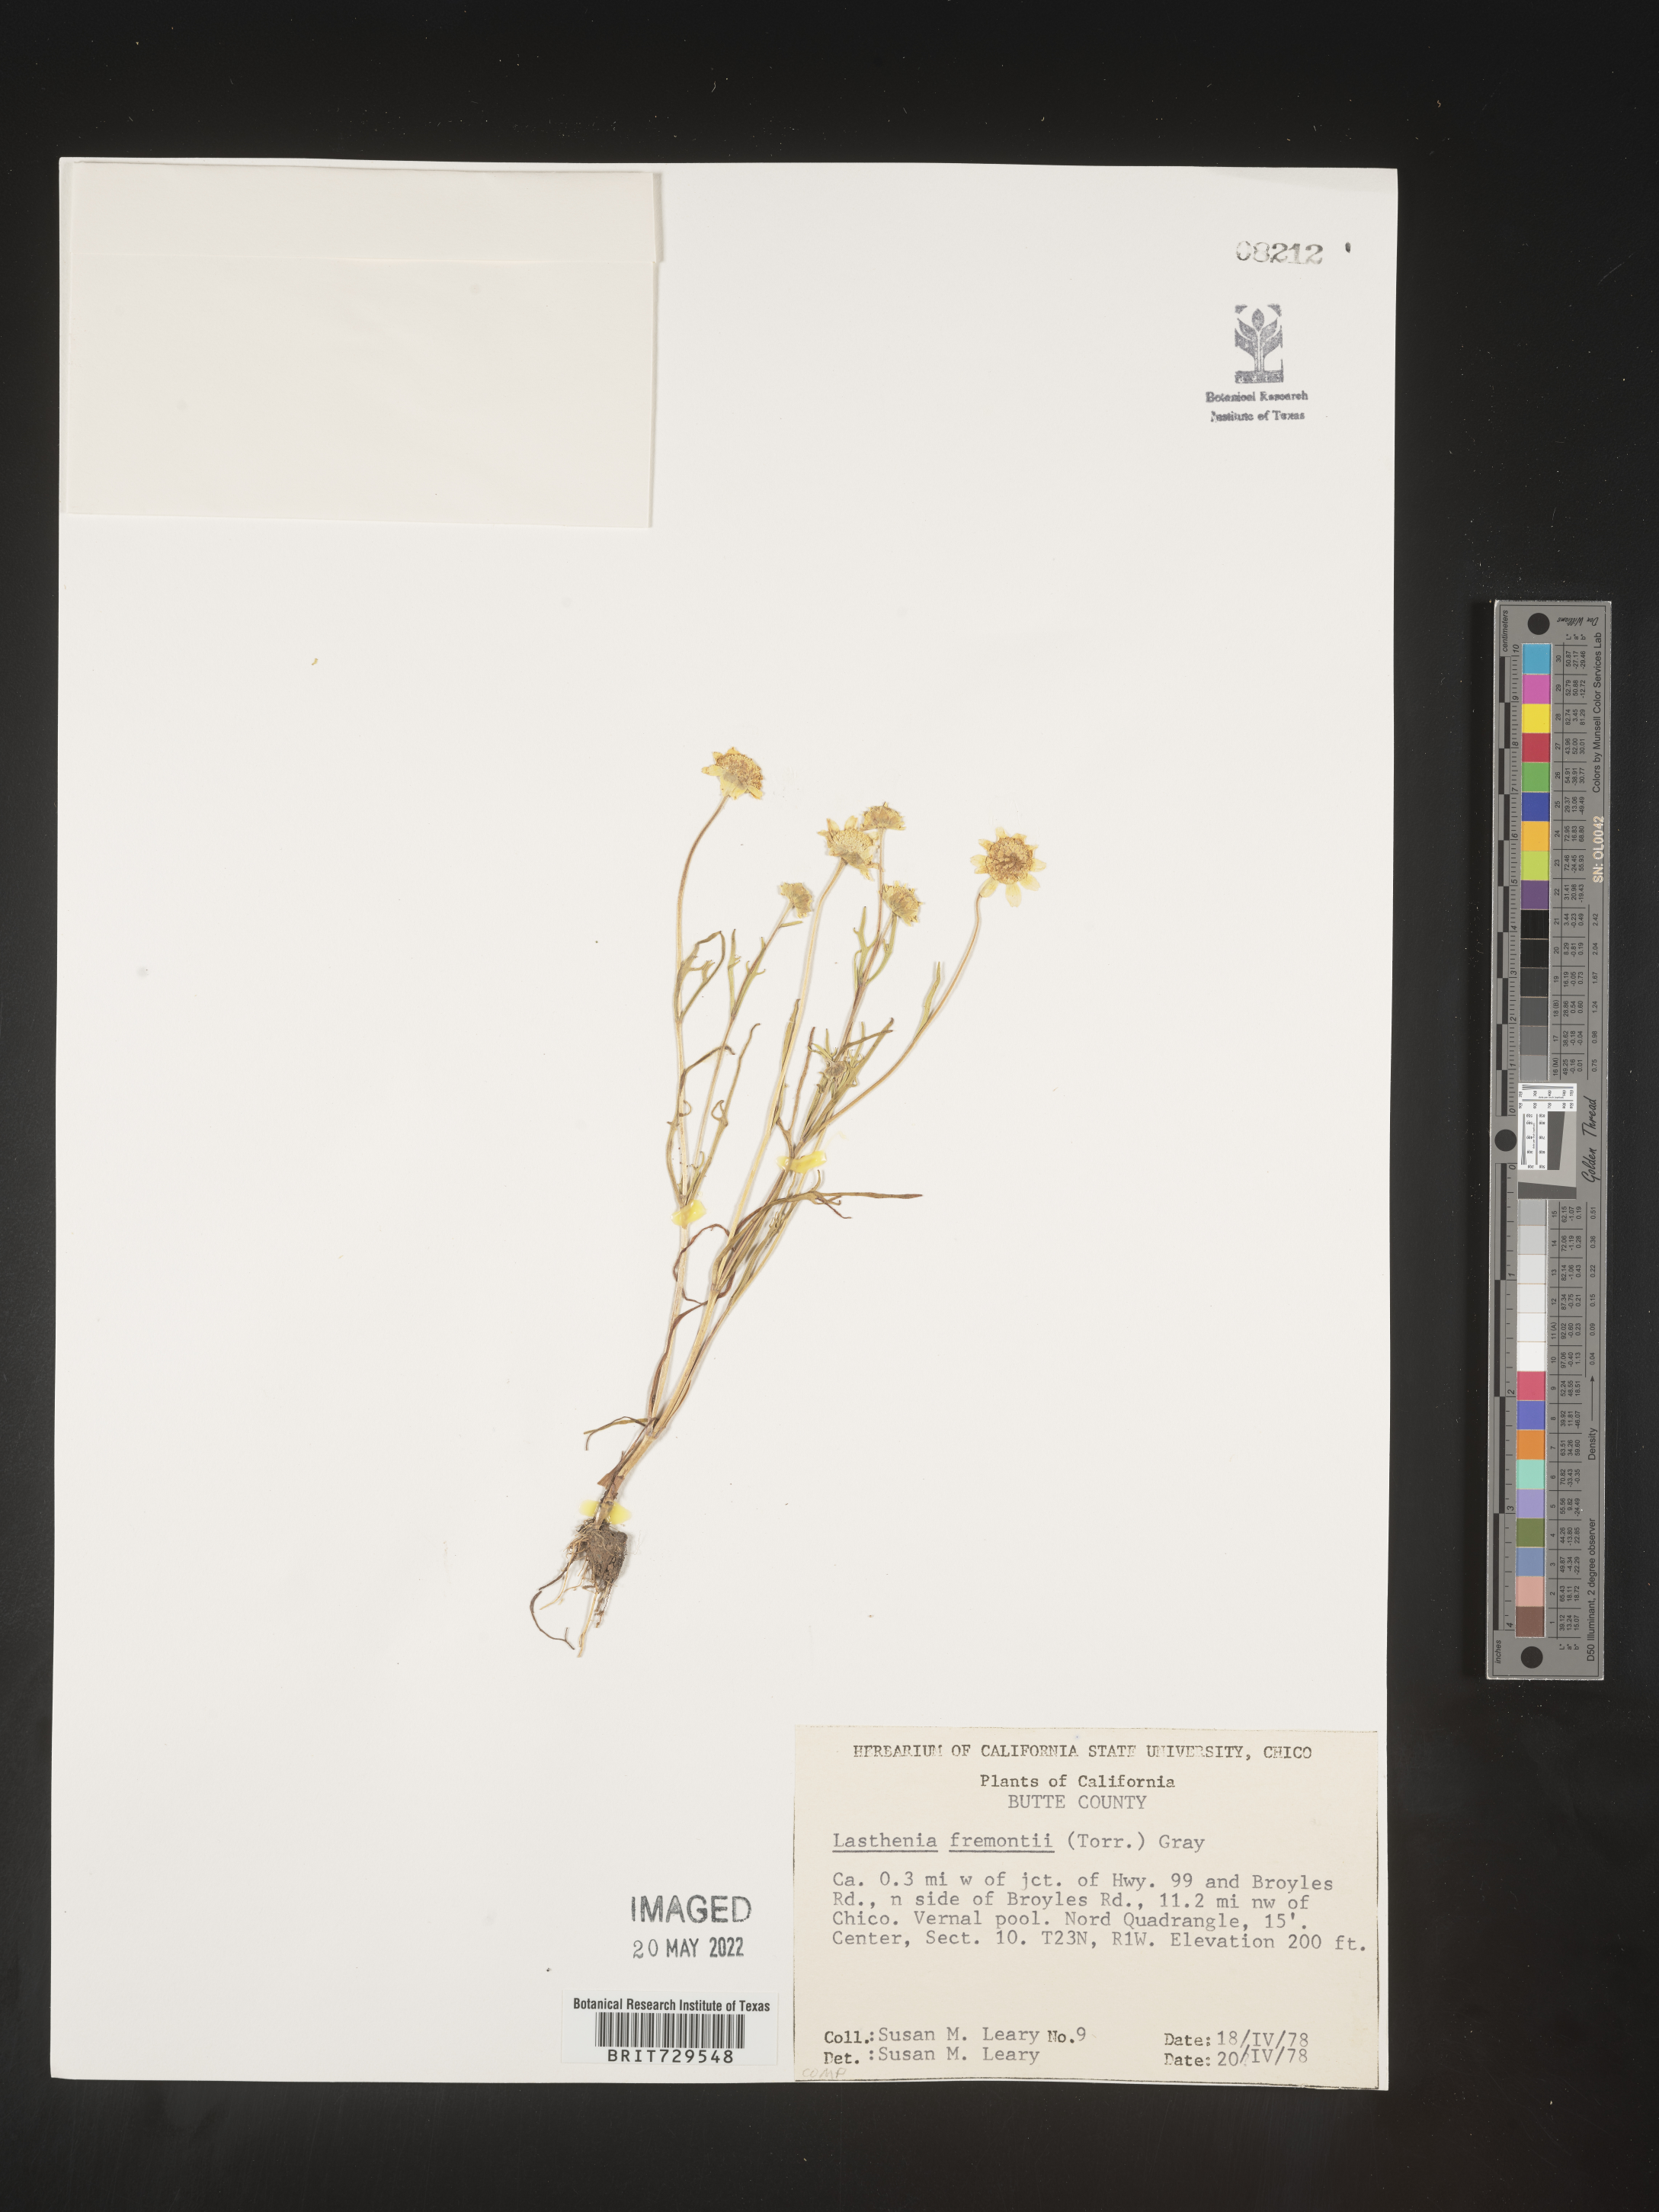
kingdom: Plantae
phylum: Tracheophyta
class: Magnoliopsida
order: Asterales
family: Asteraceae
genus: Lasthenia
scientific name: Lasthenia
